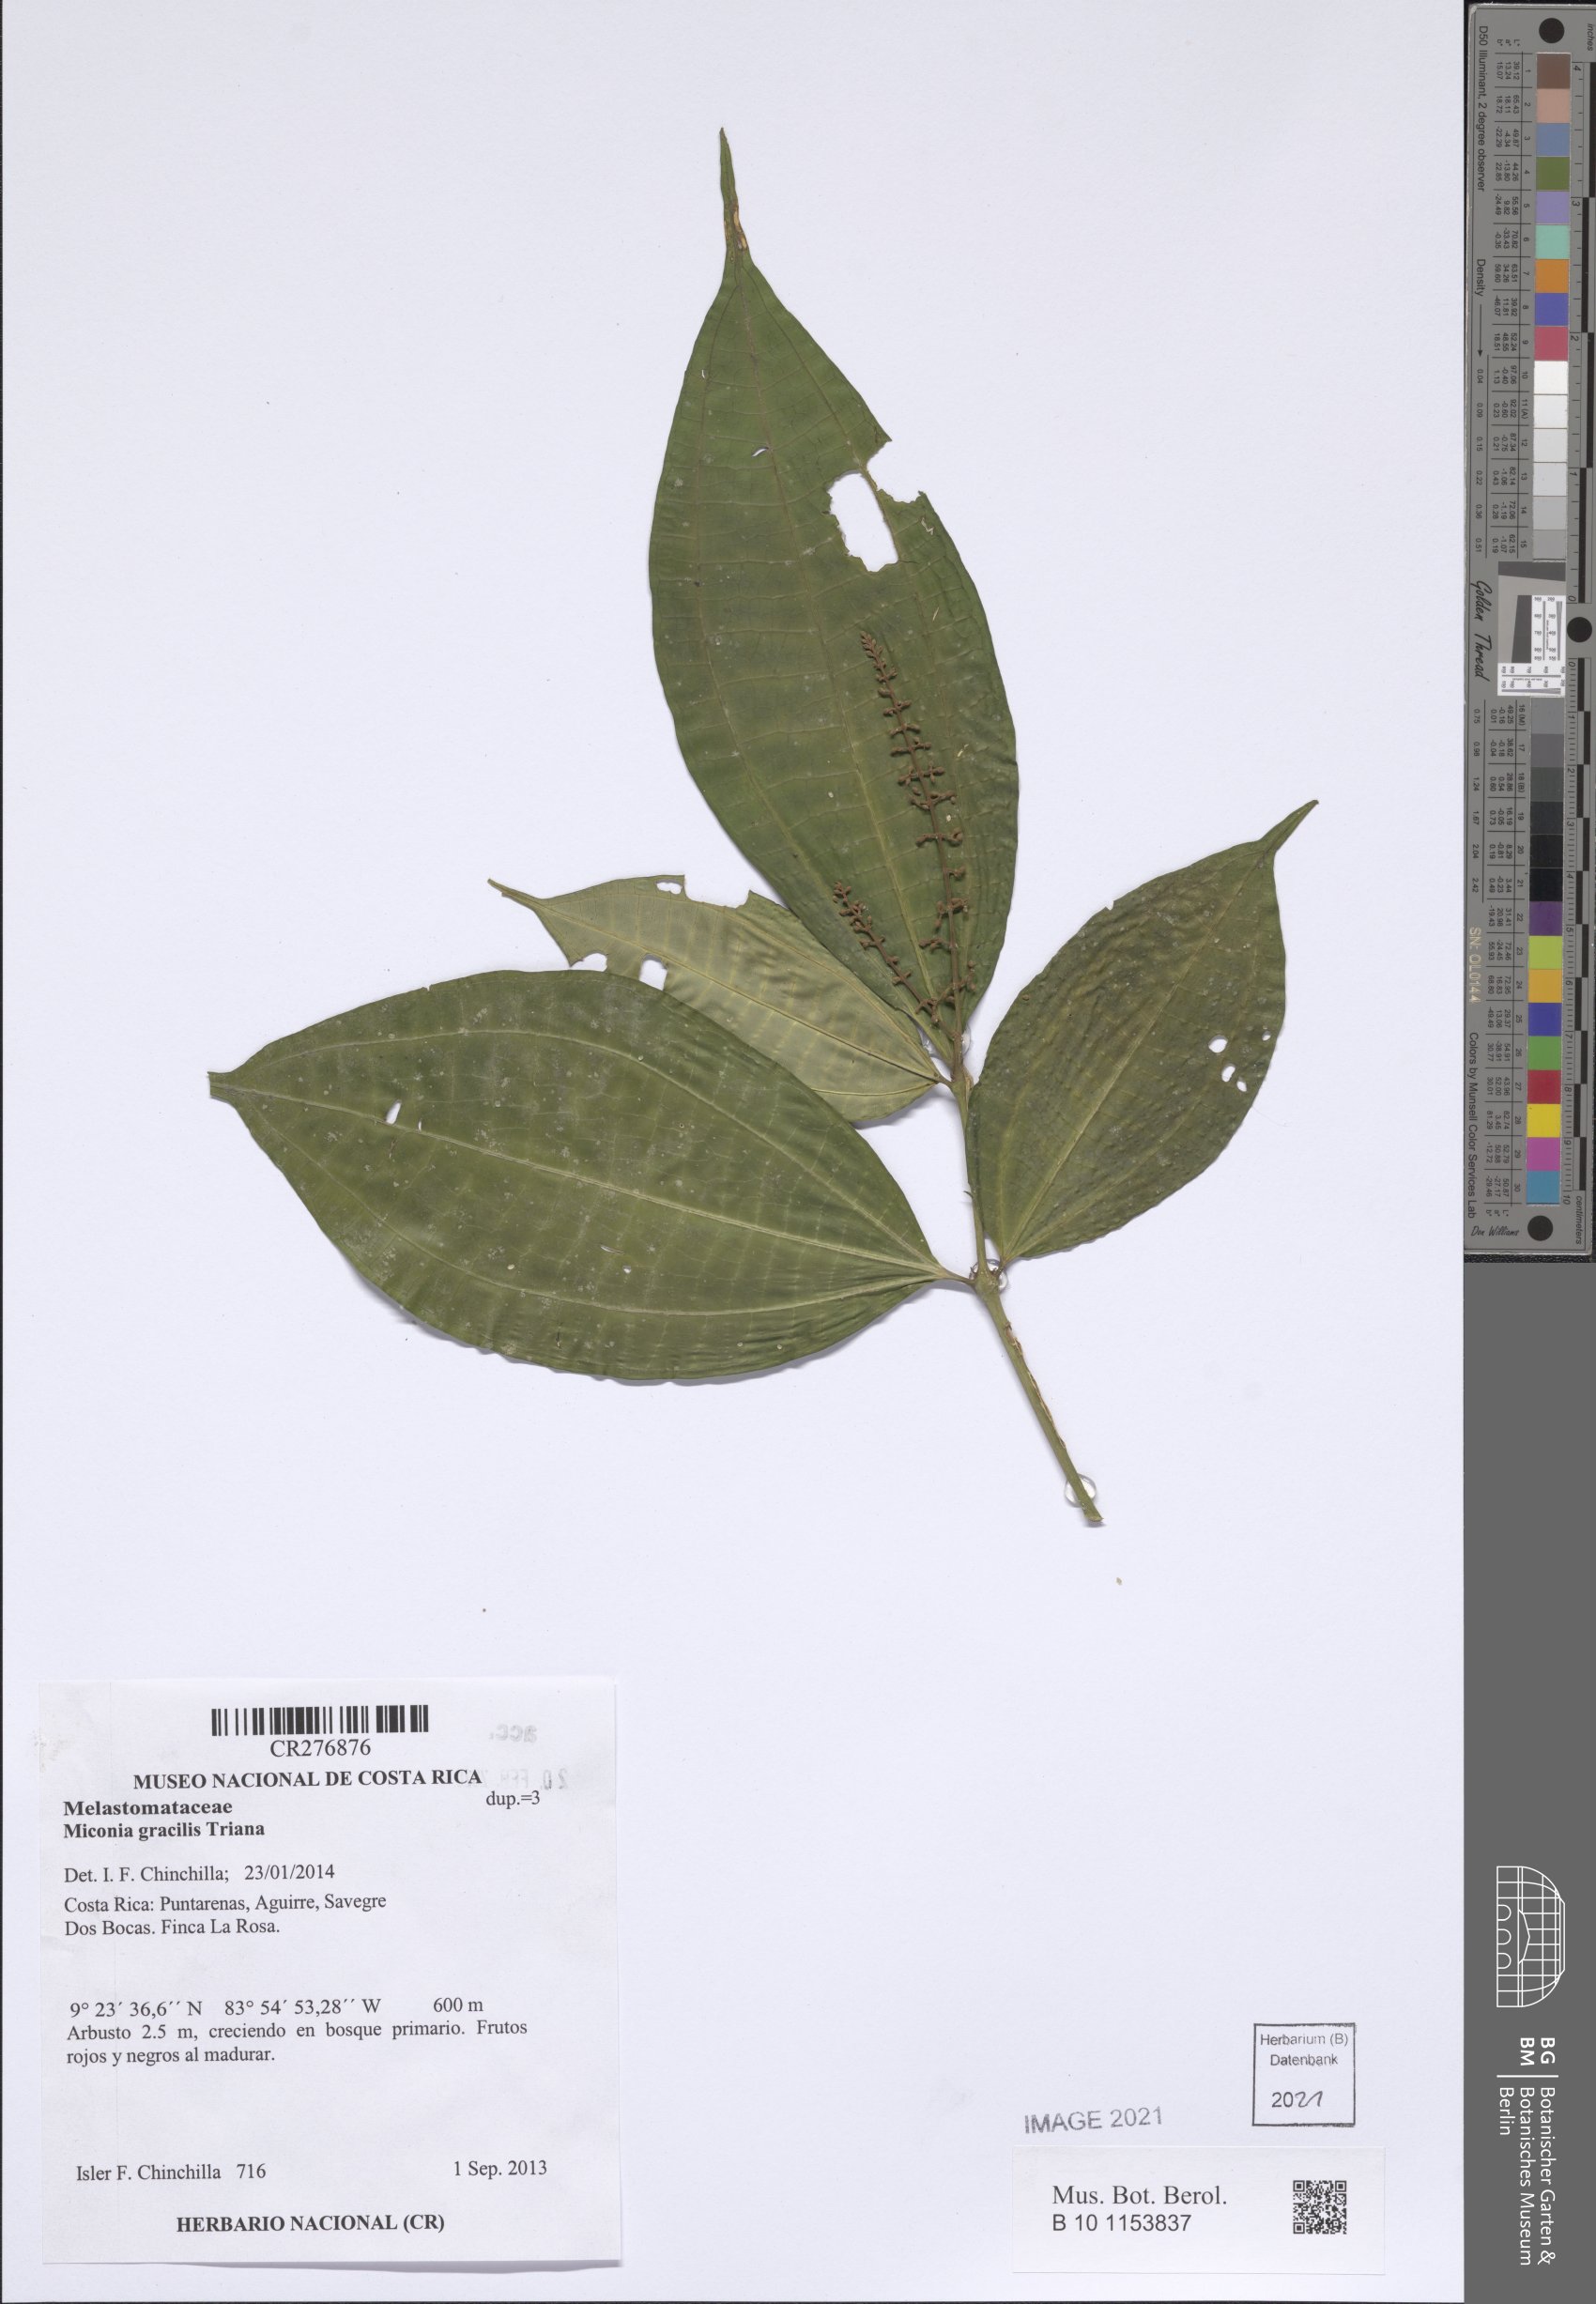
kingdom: Plantae
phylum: Tracheophyta
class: Magnoliopsida
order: Myrtales
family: Melastomataceae
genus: Miconia
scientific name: Miconia gracilis
